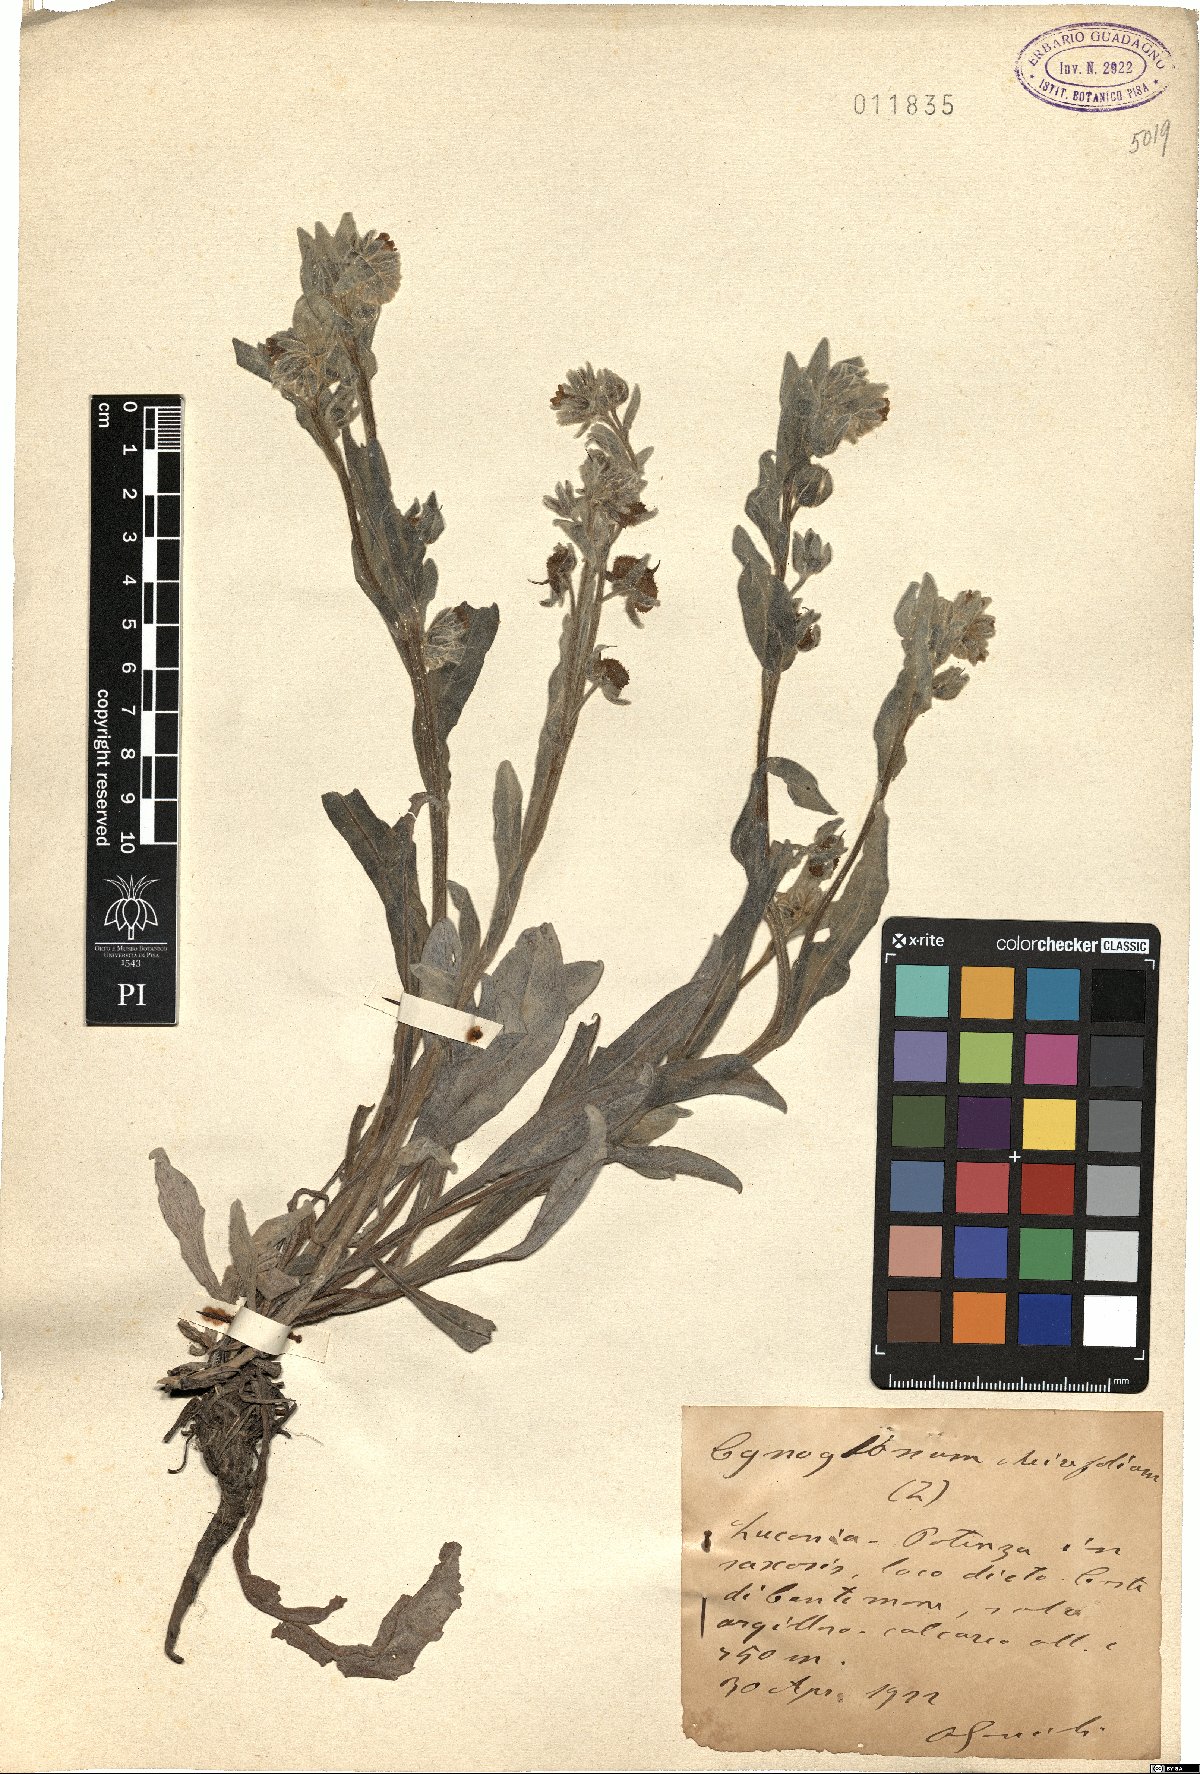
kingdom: Plantae
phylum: Tracheophyta
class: Magnoliopsida
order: Boraginales
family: Boraginaceae
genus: Pardoglossum
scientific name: Pardoglossum cheirifolium
